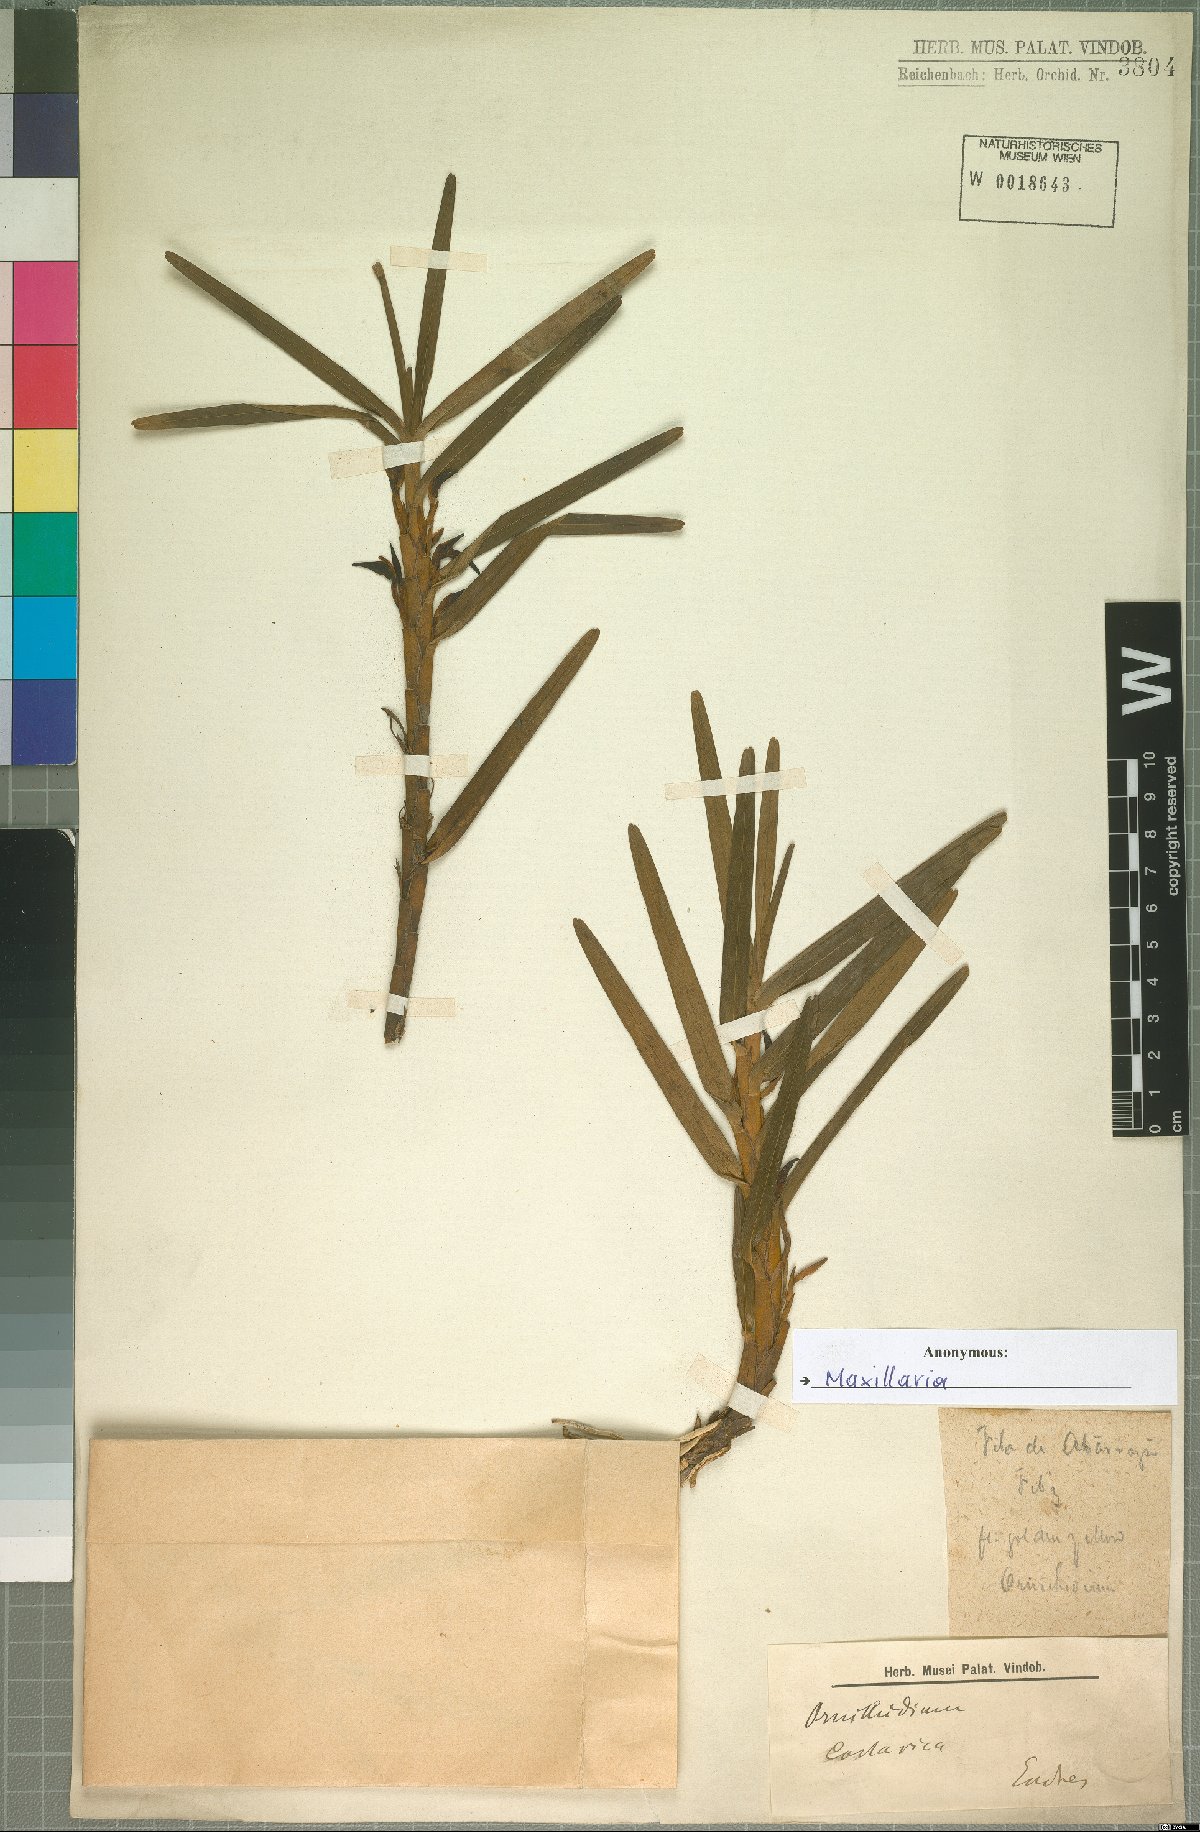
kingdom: Plantae
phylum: Tracheophyta
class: Liliopsida
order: Asparagales
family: Orchidaceae
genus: Maxillaria
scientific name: Maxillaria
